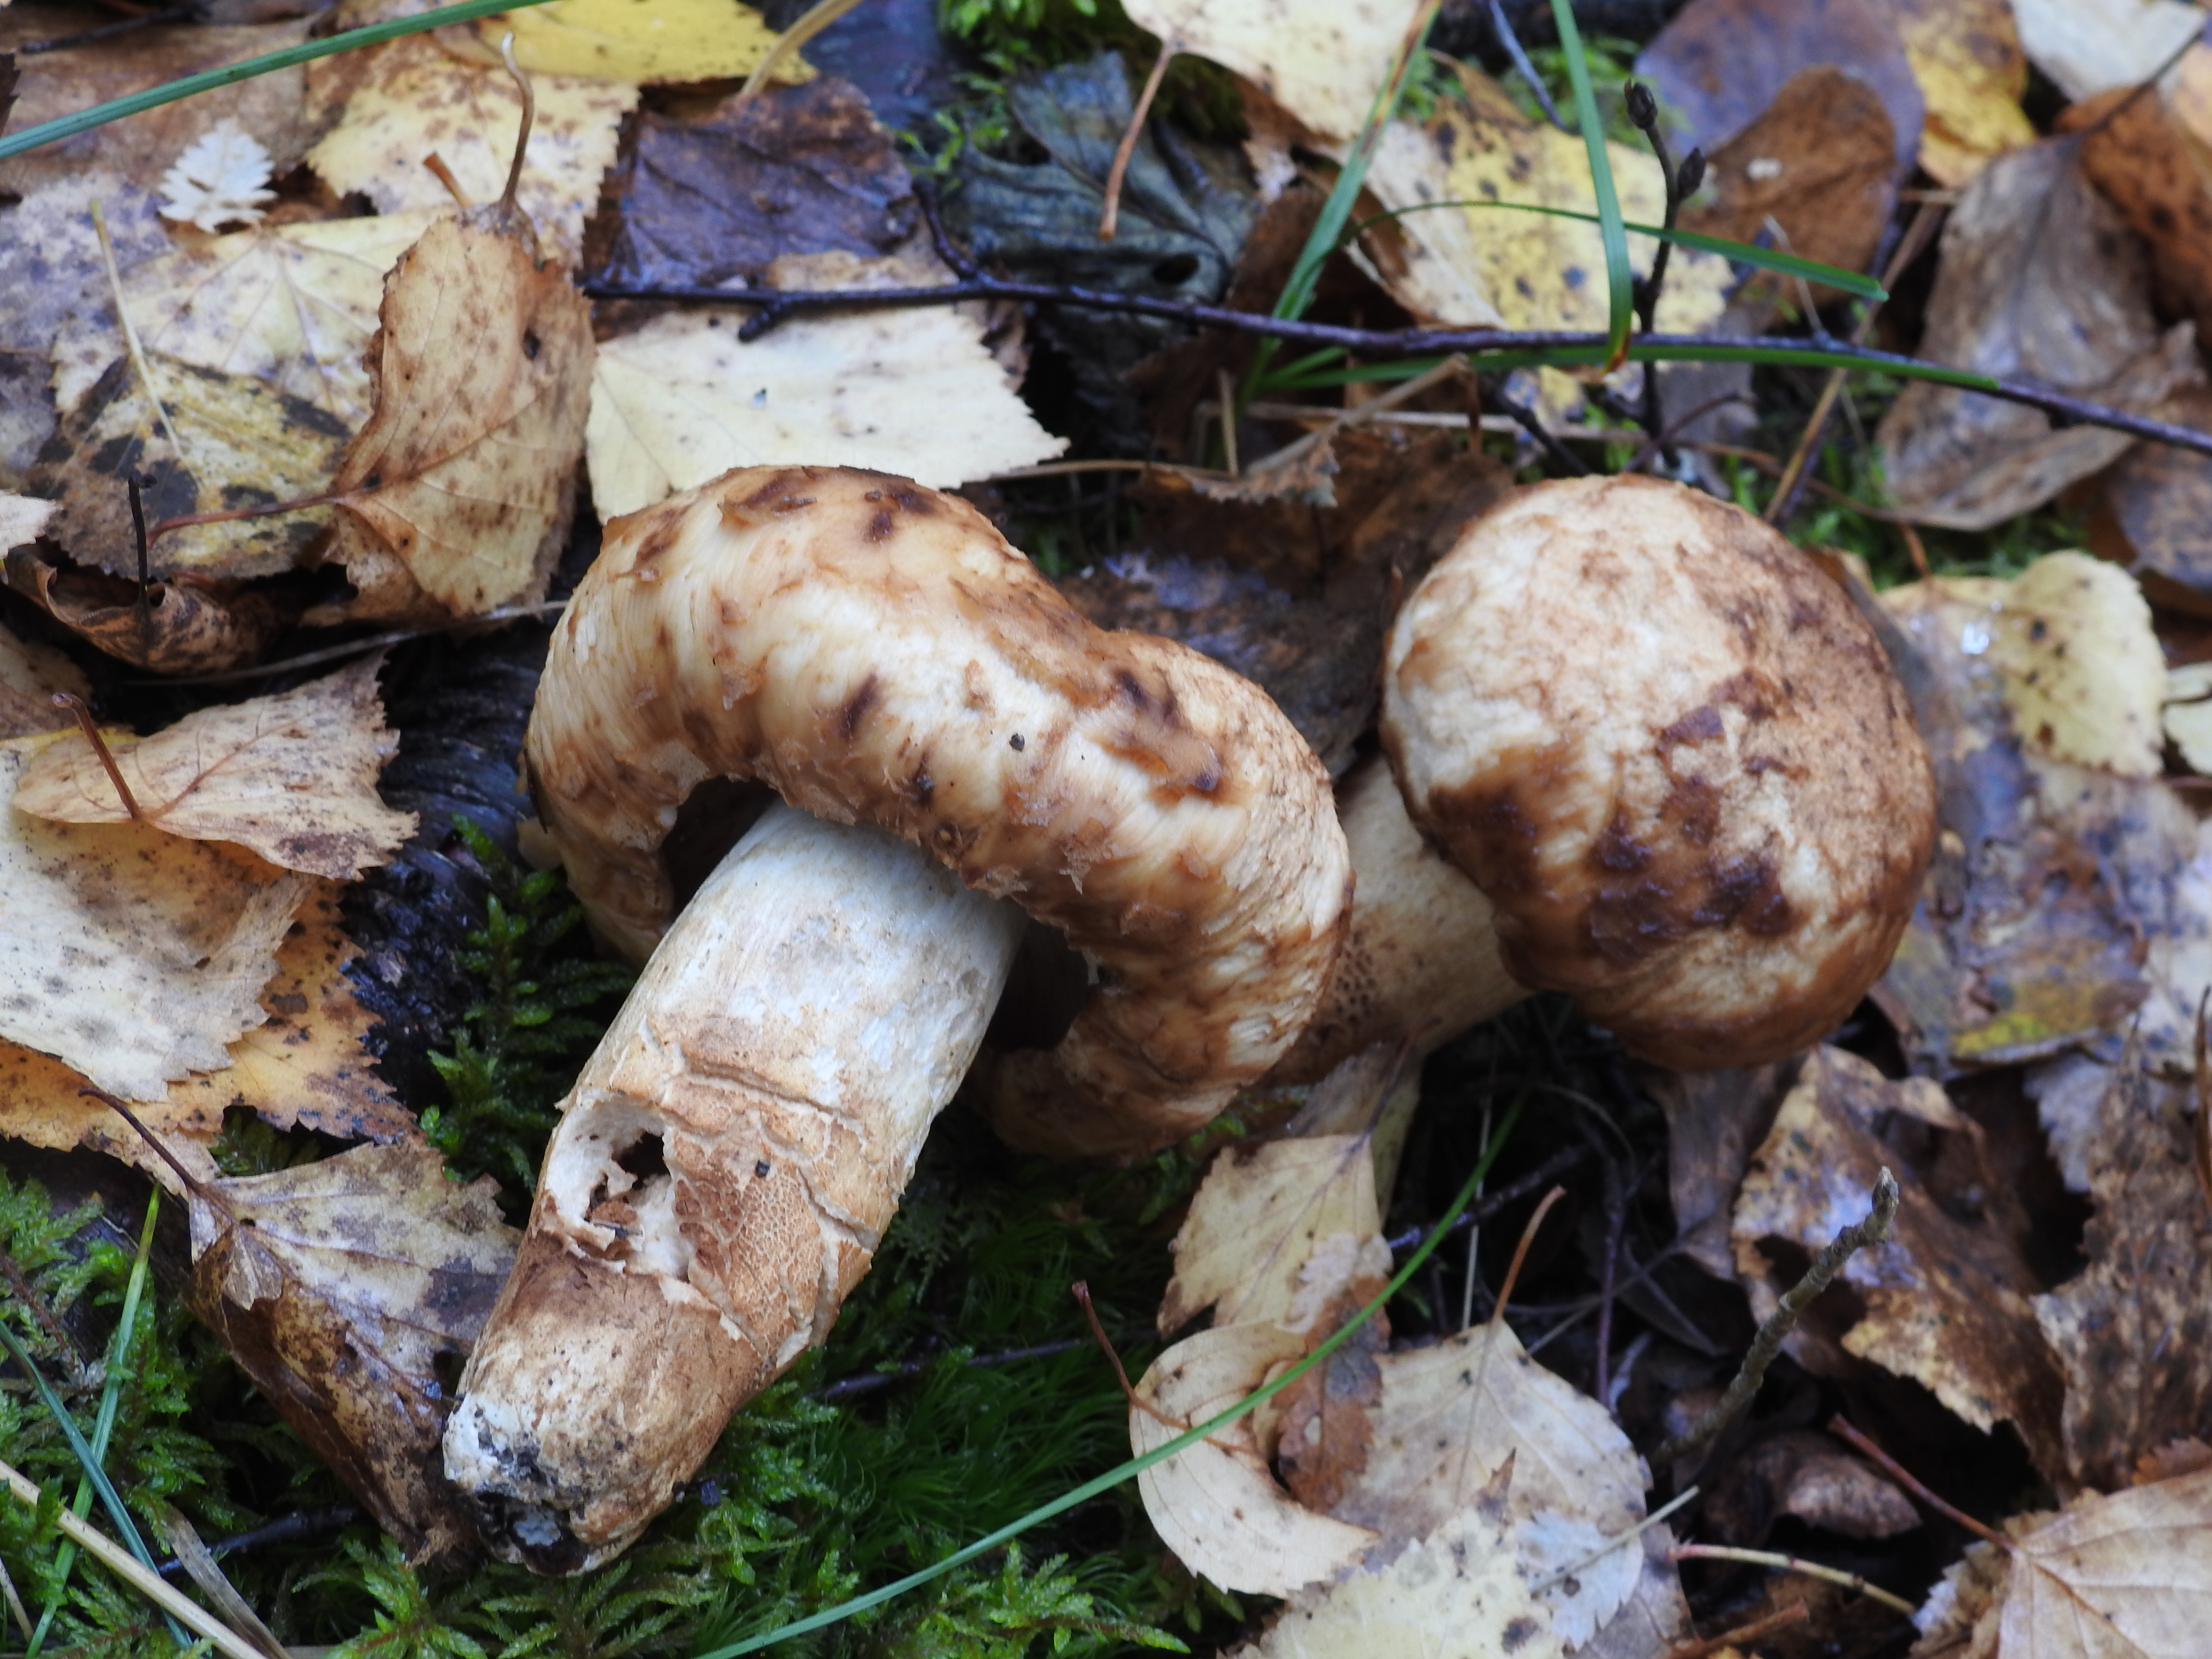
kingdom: Fungi
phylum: Basidiomycota
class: Agaricomycetes
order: Russulales
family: Russulaceae
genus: Russula
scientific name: Russula foetens
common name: Foetid russula
